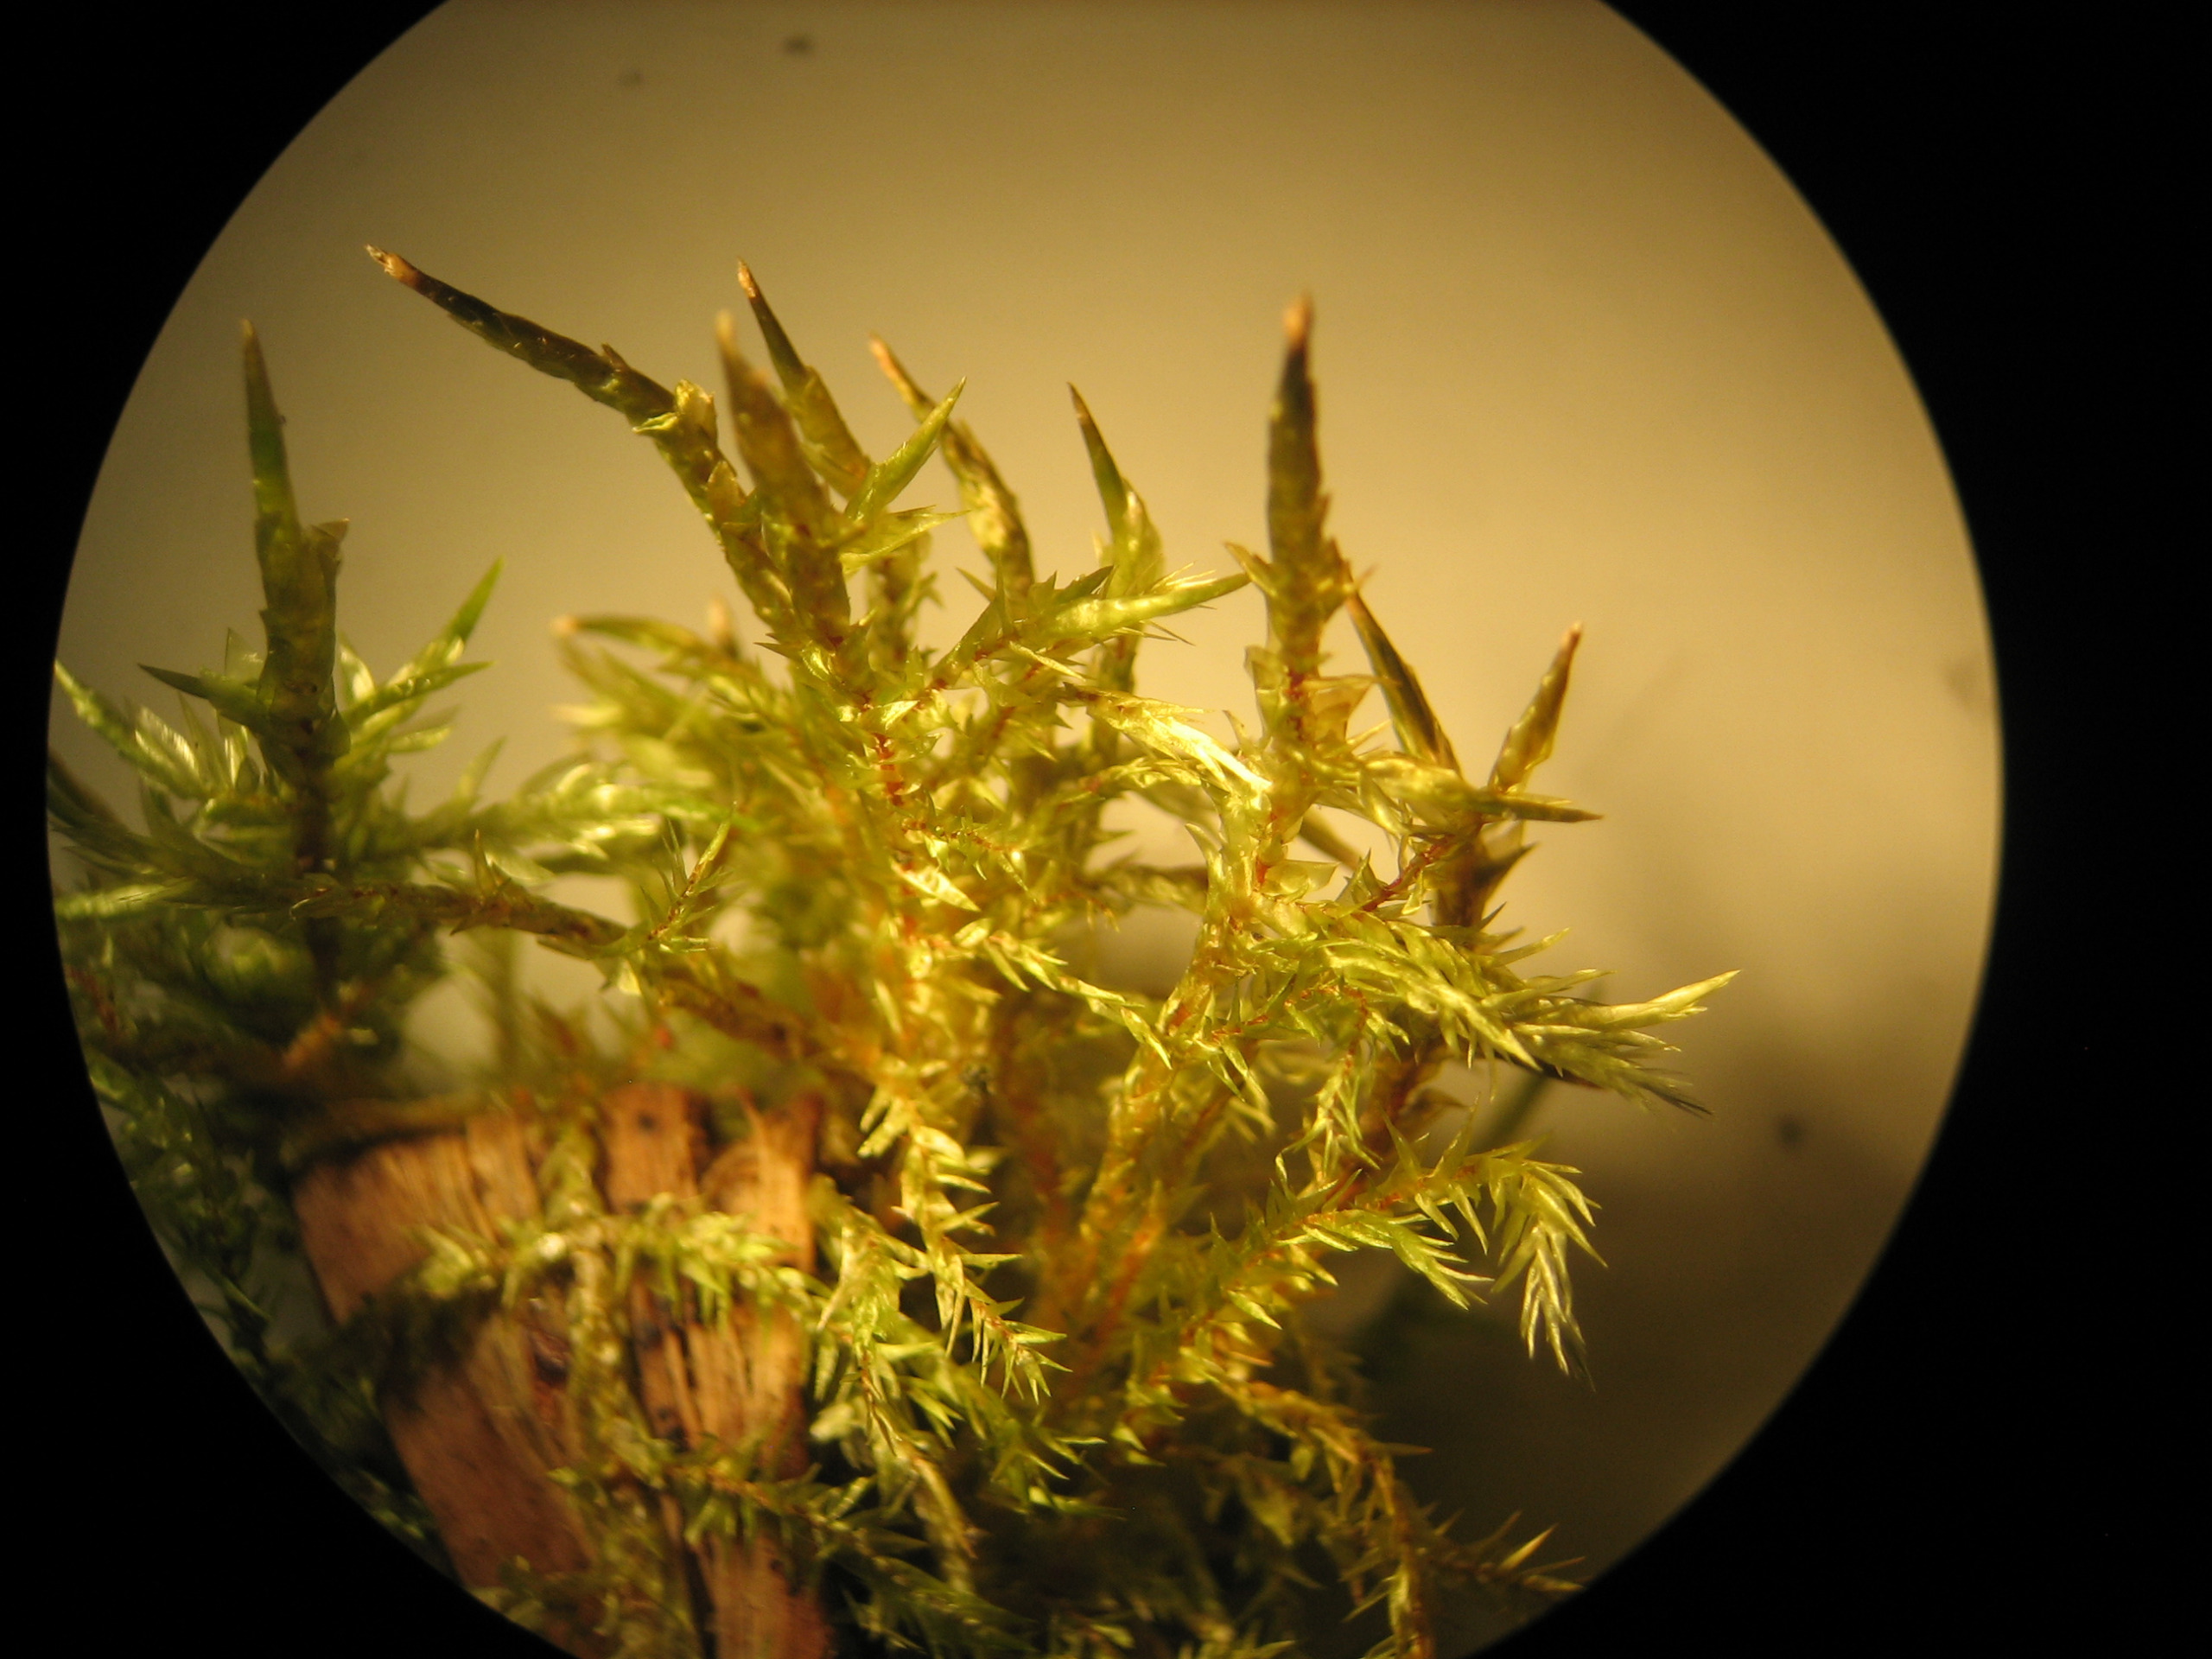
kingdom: Plantae
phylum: Bryophyta
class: Bryopsida
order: Hypnales
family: Pylaisiaceae
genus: Calliergonella
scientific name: Calliergonella cuspidata
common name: Spids spydmos
